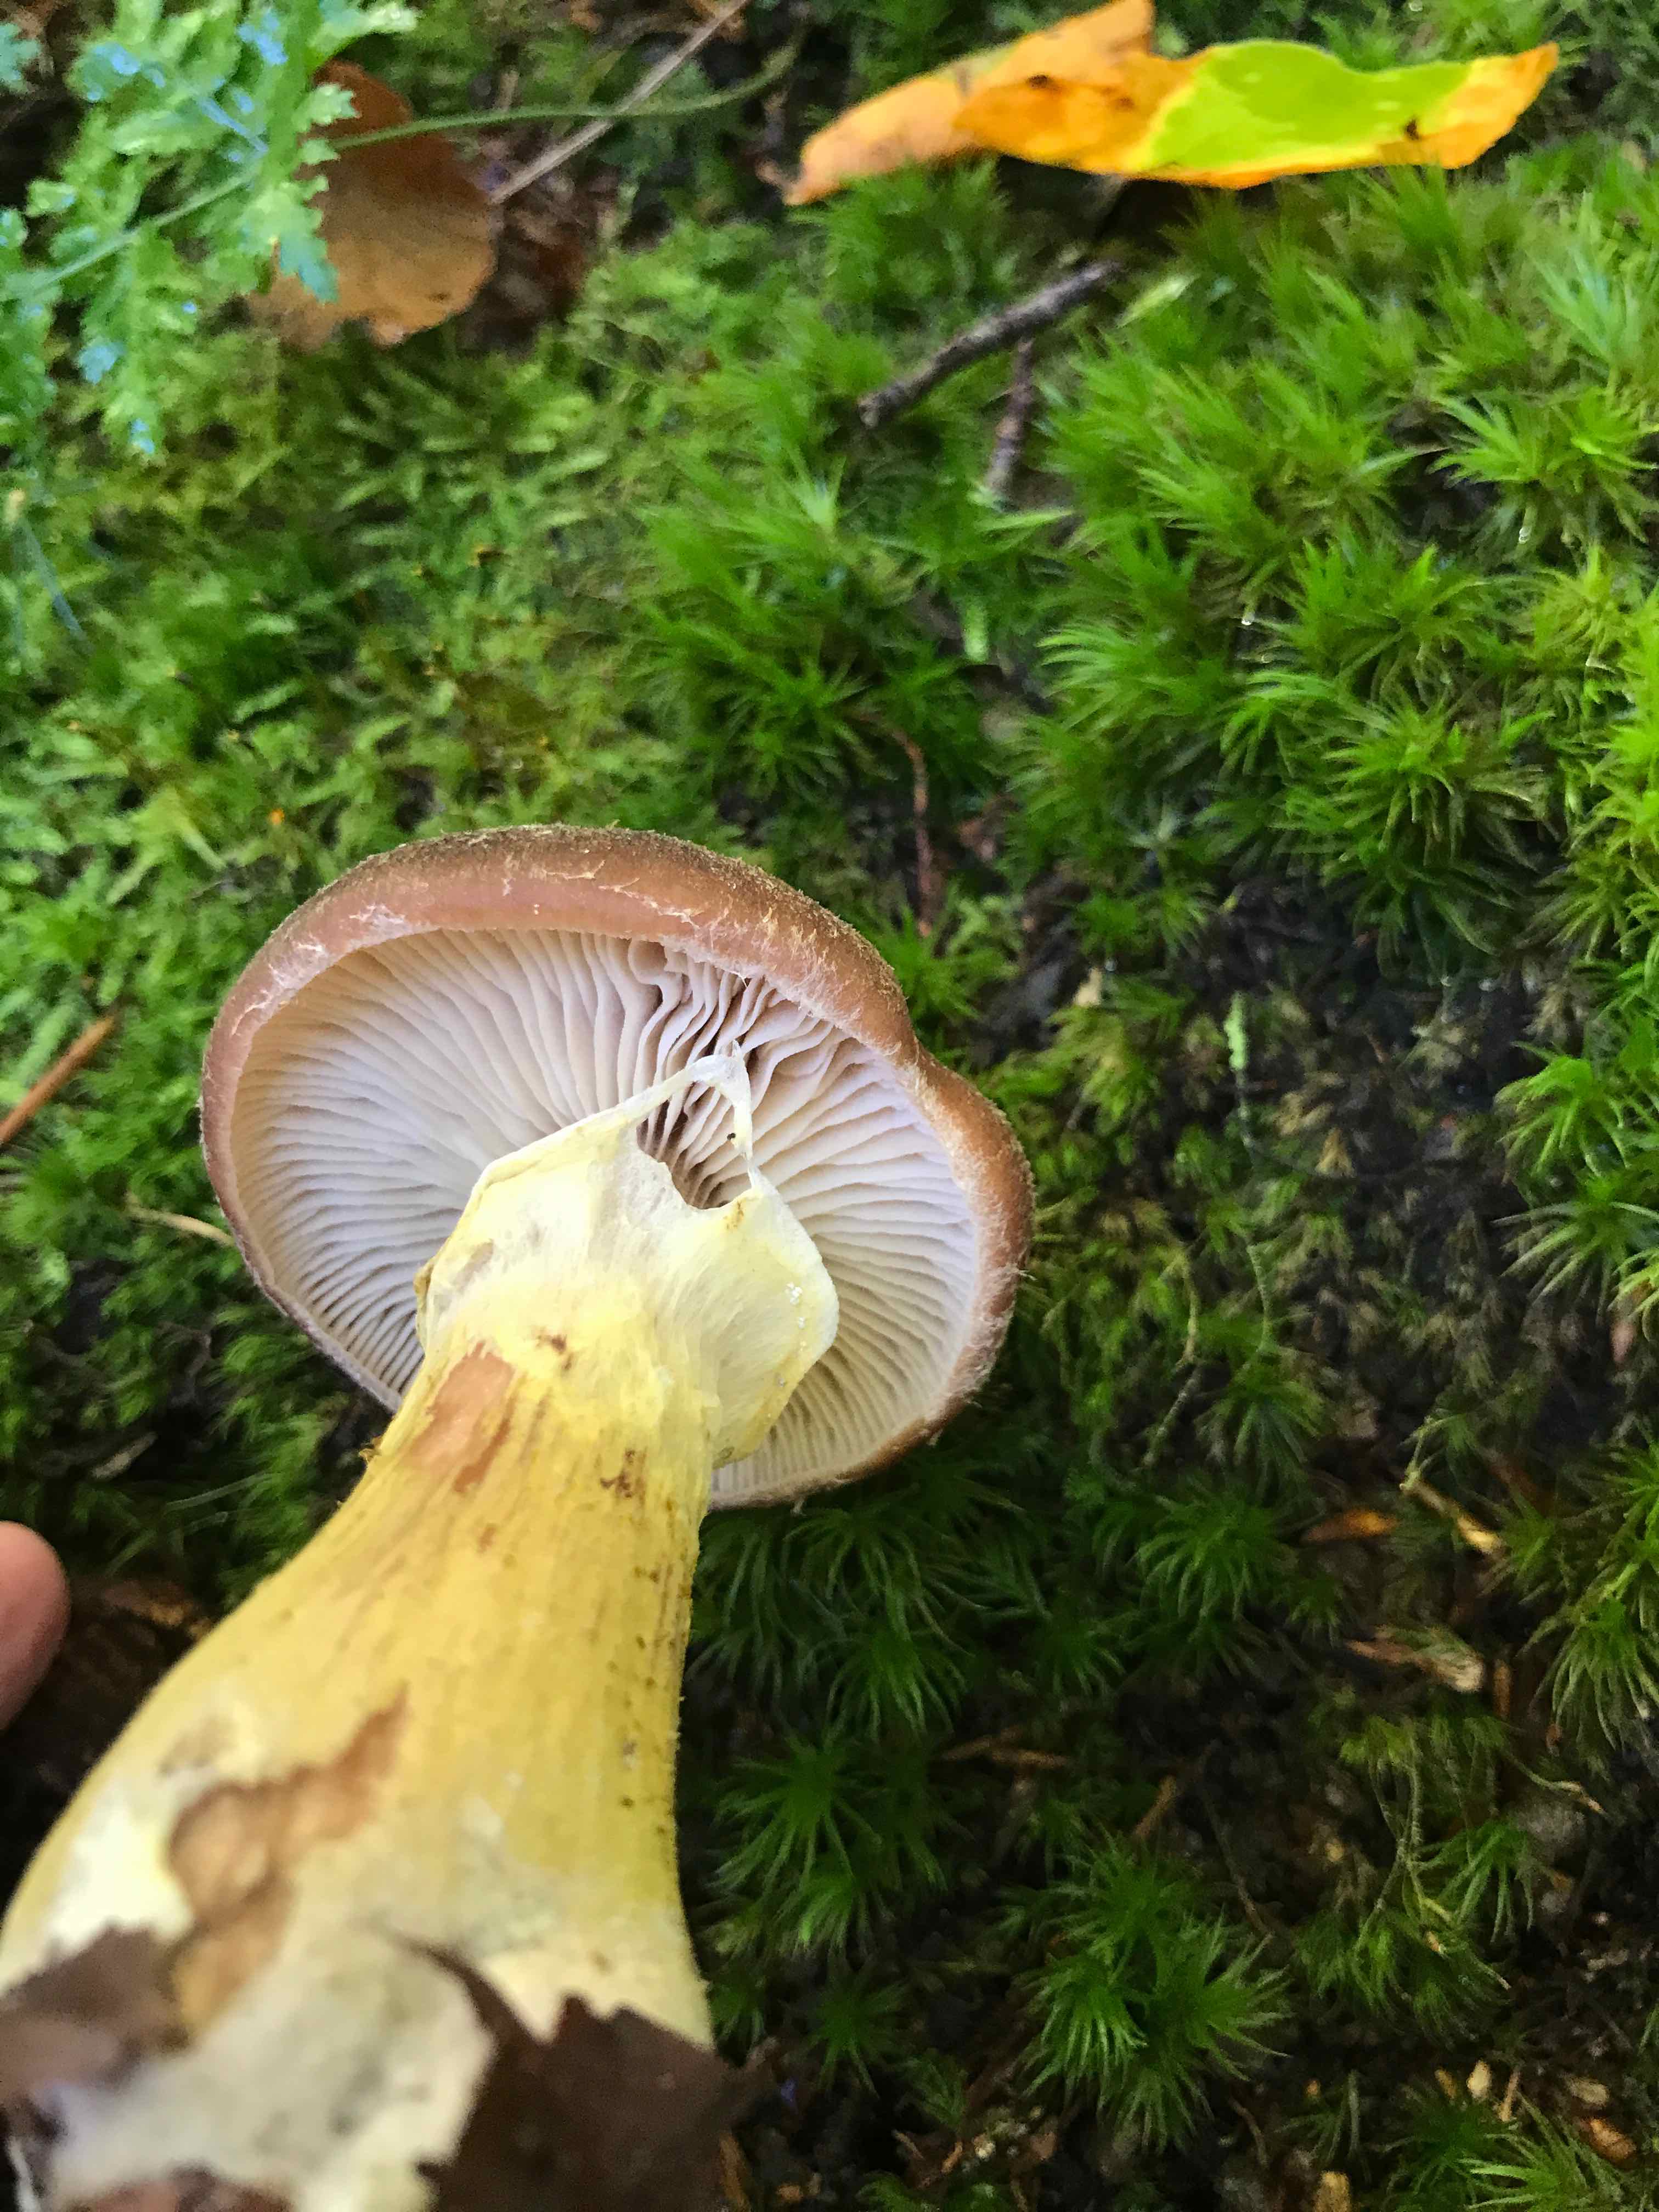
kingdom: Fungi
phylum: Basidiomycota
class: Agaricomycetes
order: Agaricales
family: Physalacriaceae
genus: Armillaria
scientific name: Armillaria lutea
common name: køllestokket honningsvamp
